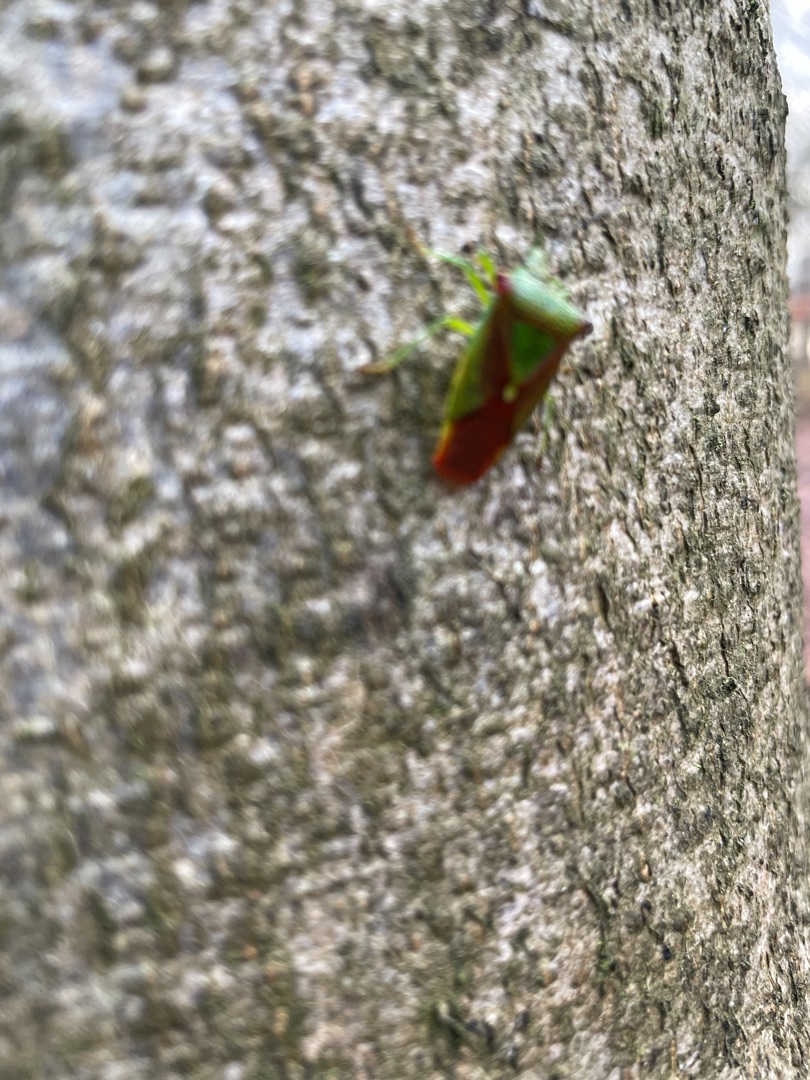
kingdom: Animalia
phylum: Arthropoda
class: Insecta
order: Hemiptera
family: Acanthosomatidae
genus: Acanthosoma
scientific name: Acanthosoma haemorrhoidale
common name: Stor løvtæge
